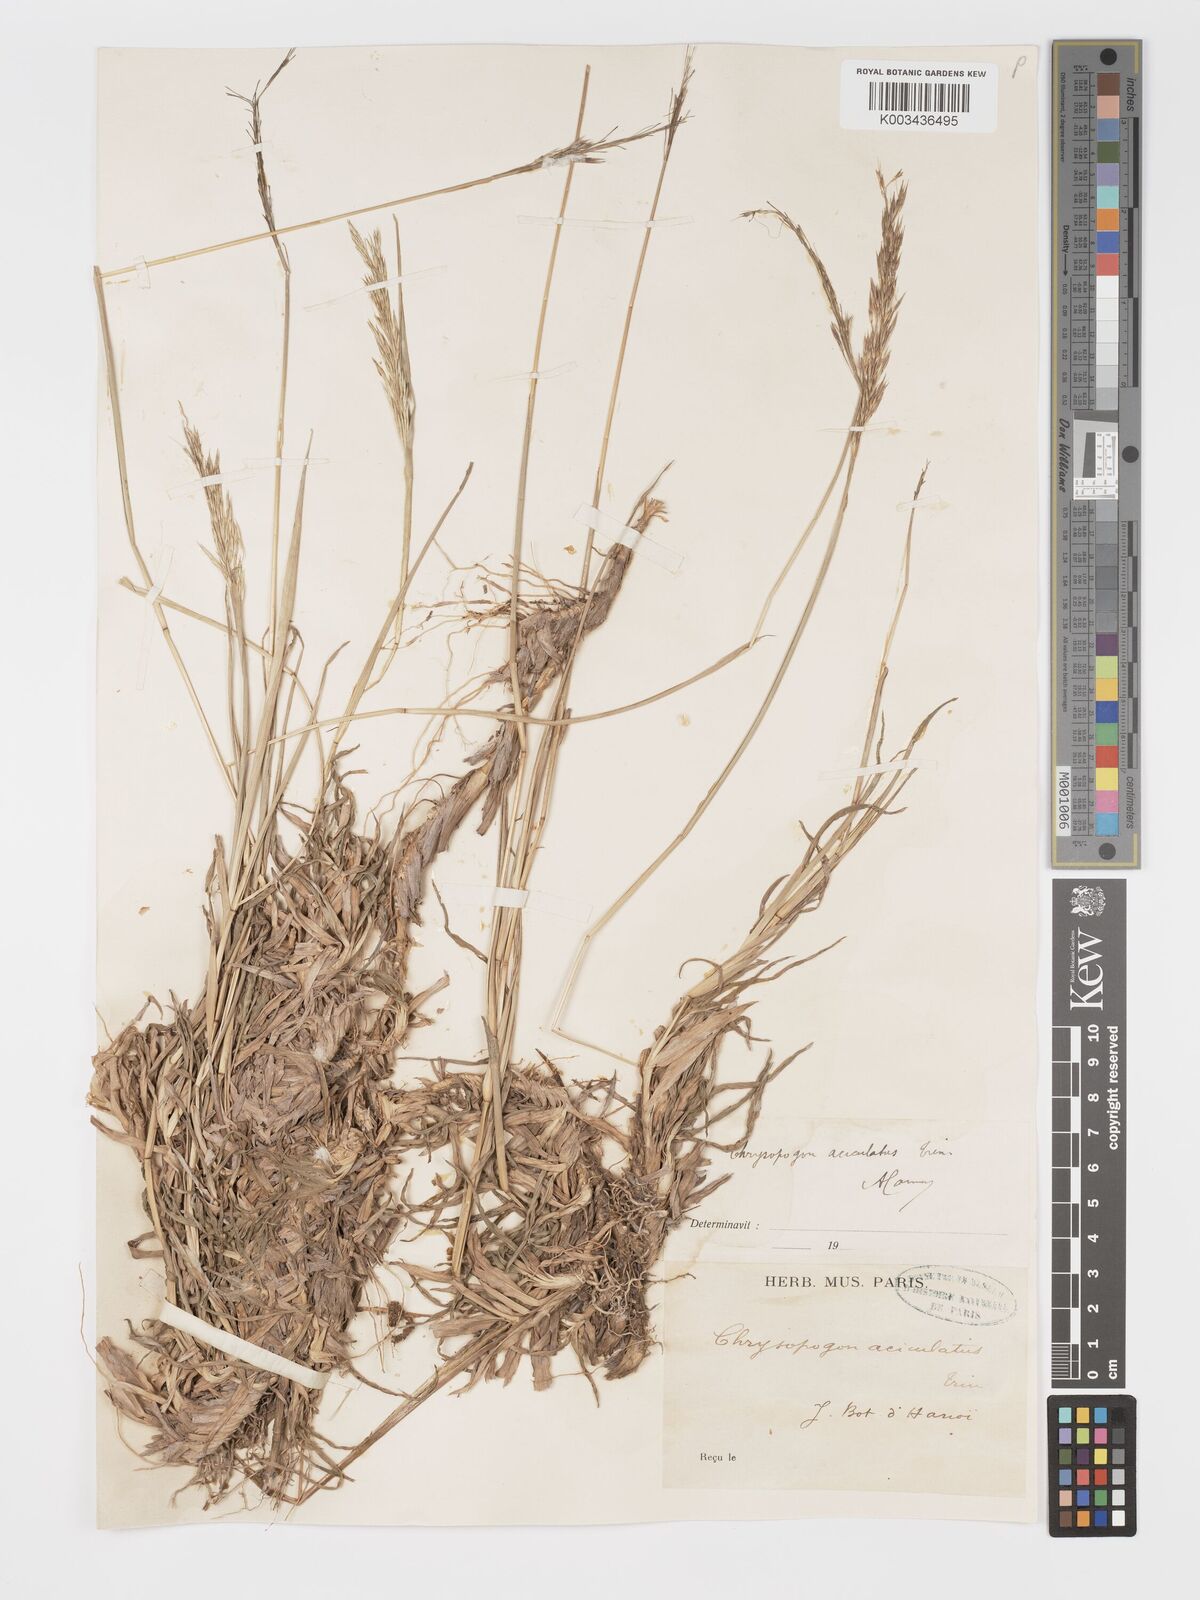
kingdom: Plantae
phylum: Tracheophyta
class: Liliopsida
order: Poales
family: Poaceae
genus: Chrysopogon
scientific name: Chrysopogon aciculatus
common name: Pilipiliula
